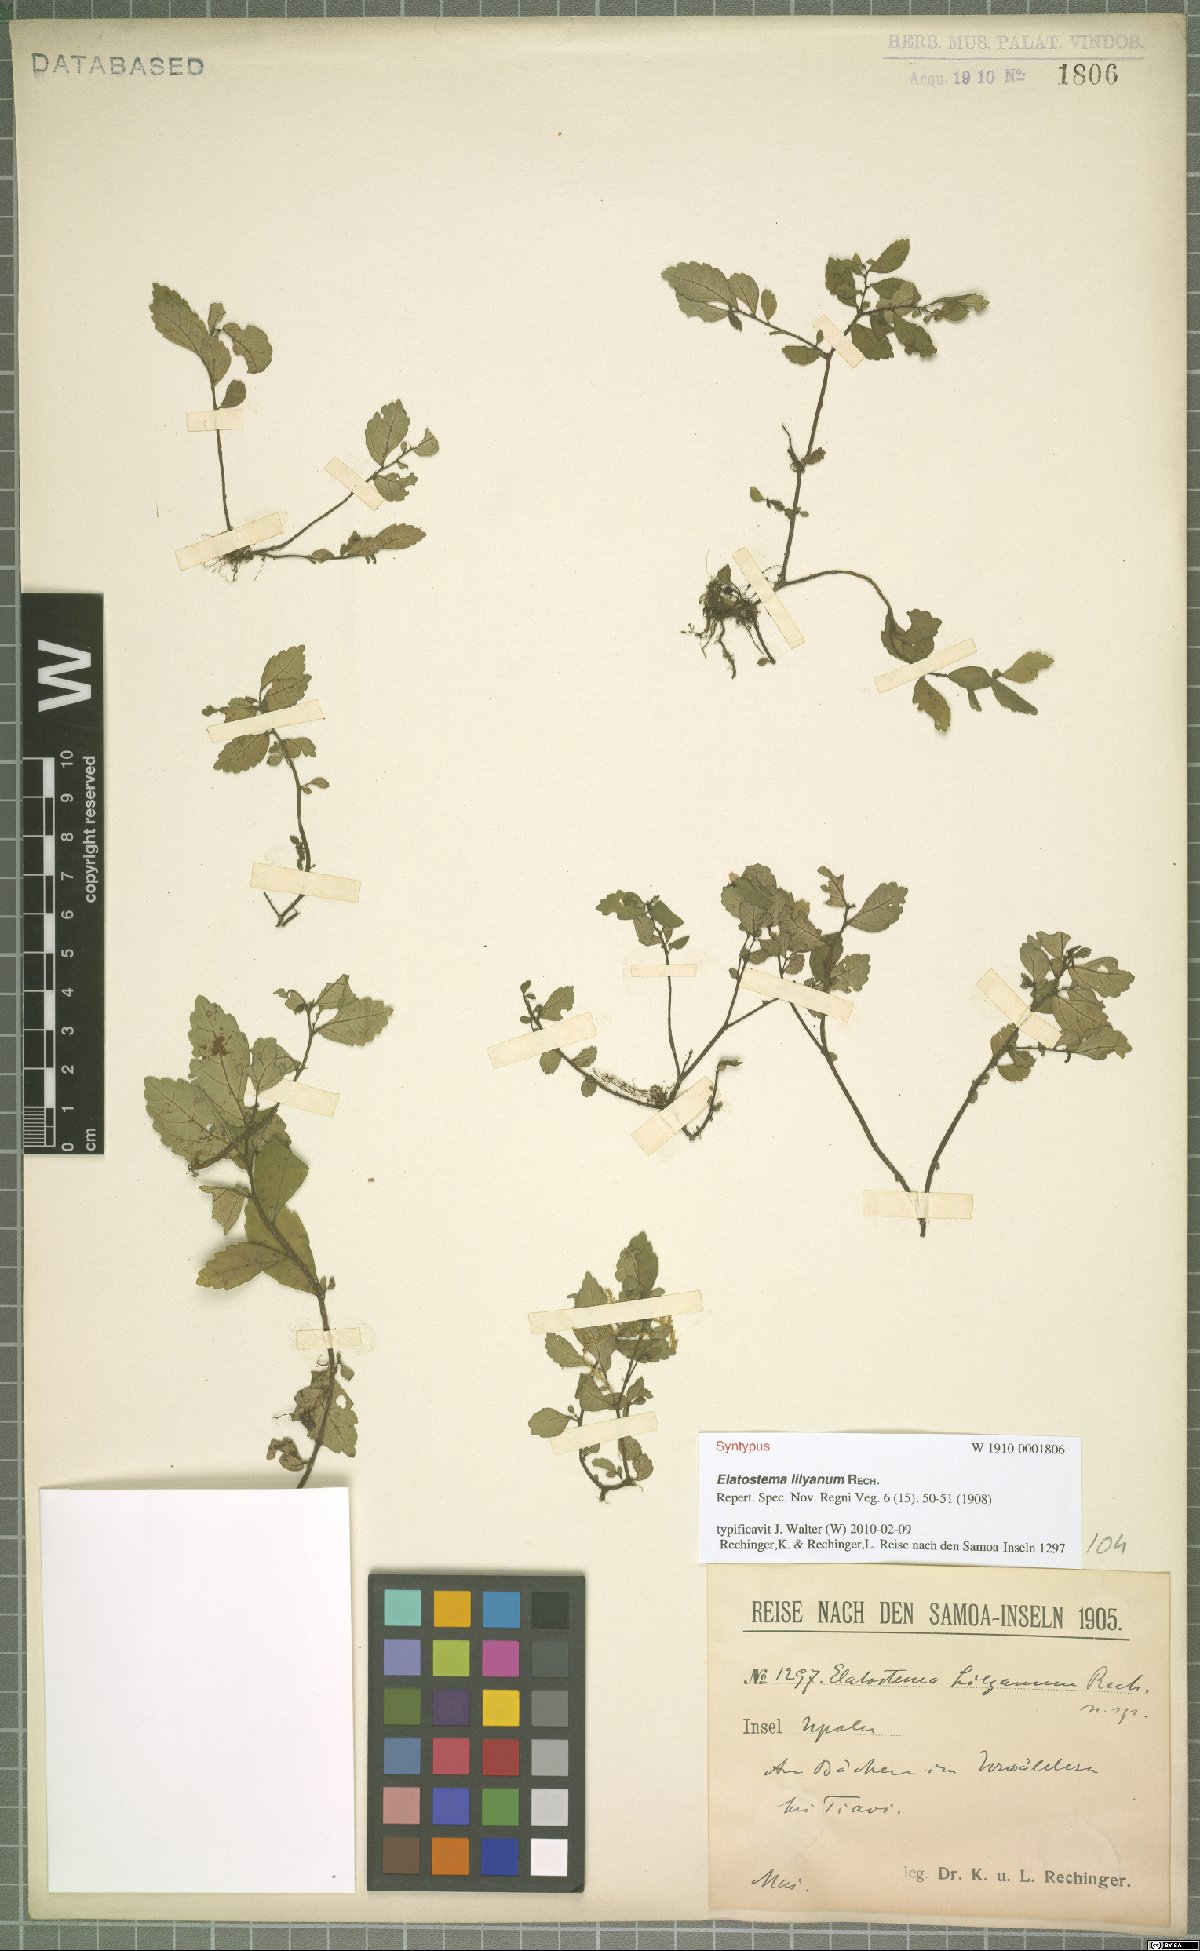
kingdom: Plantae
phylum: Tracheophyta
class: Magnoliopsida
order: Rosales
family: Urticaceae
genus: Elatostema
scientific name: Elatostema lilyanum
